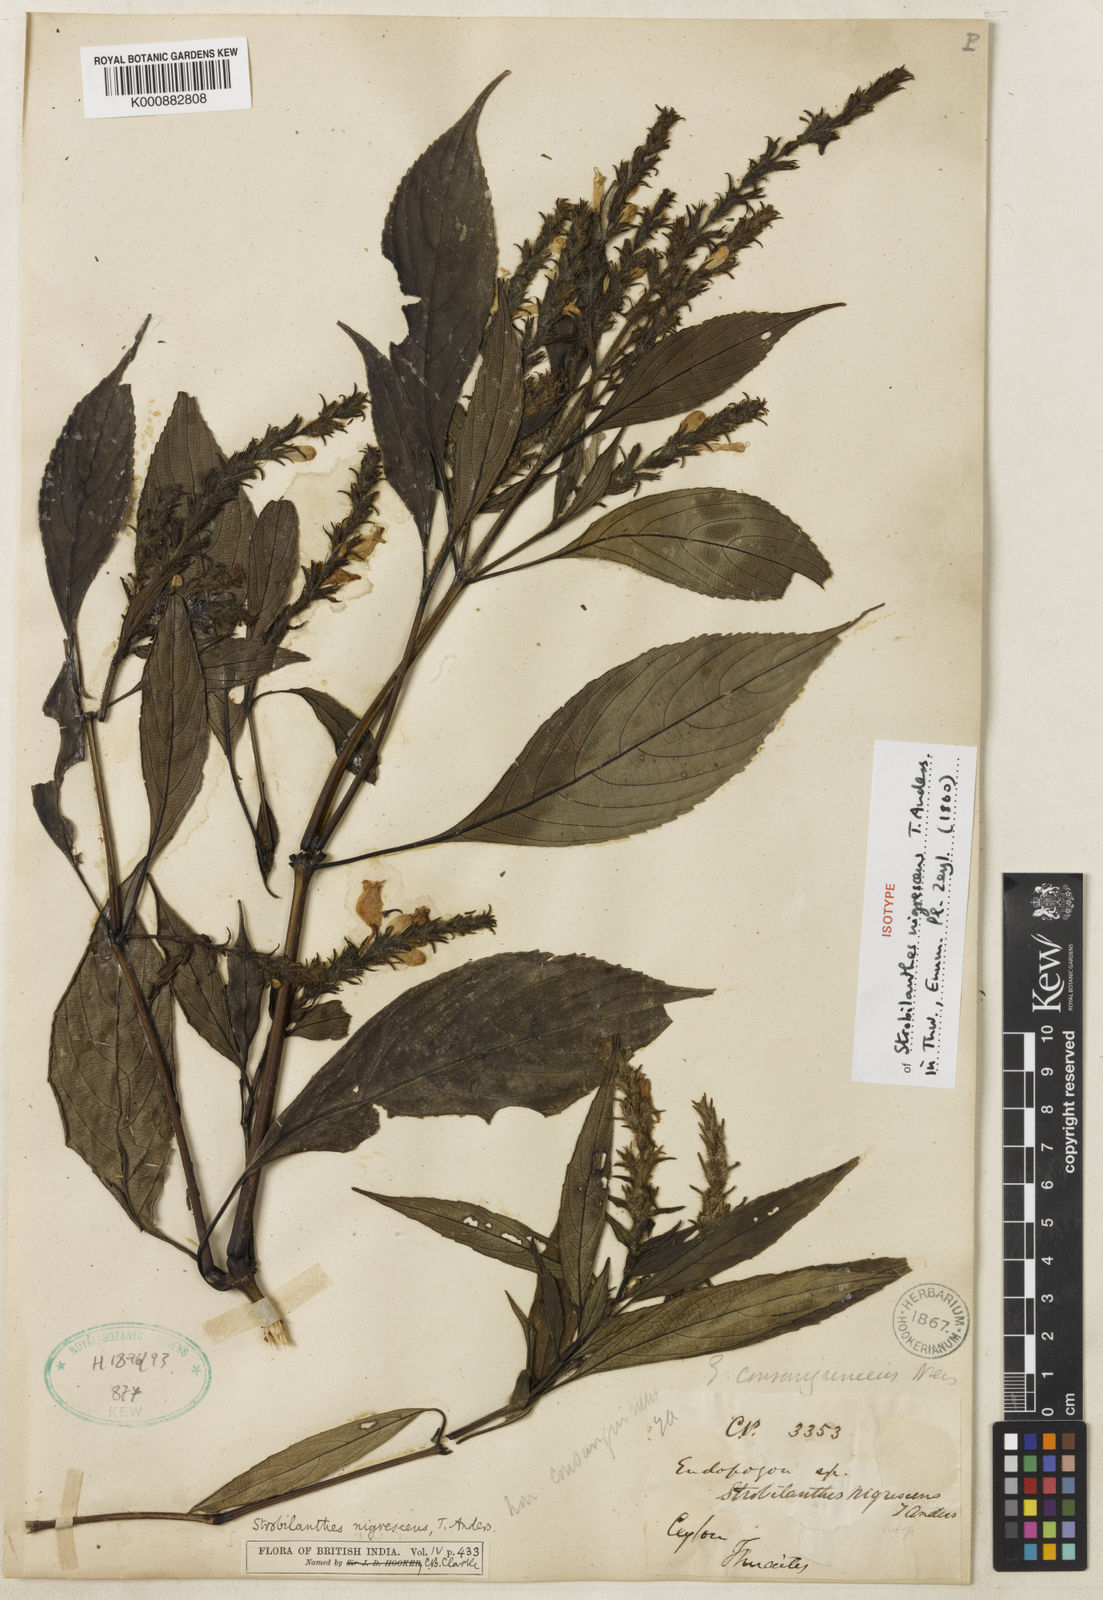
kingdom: Plantae
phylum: Tracheophyta
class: Magnoliopsida
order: Lamiales
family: Acanthaceae
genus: Strobilanthes
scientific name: Strobilanthes nigrescens
